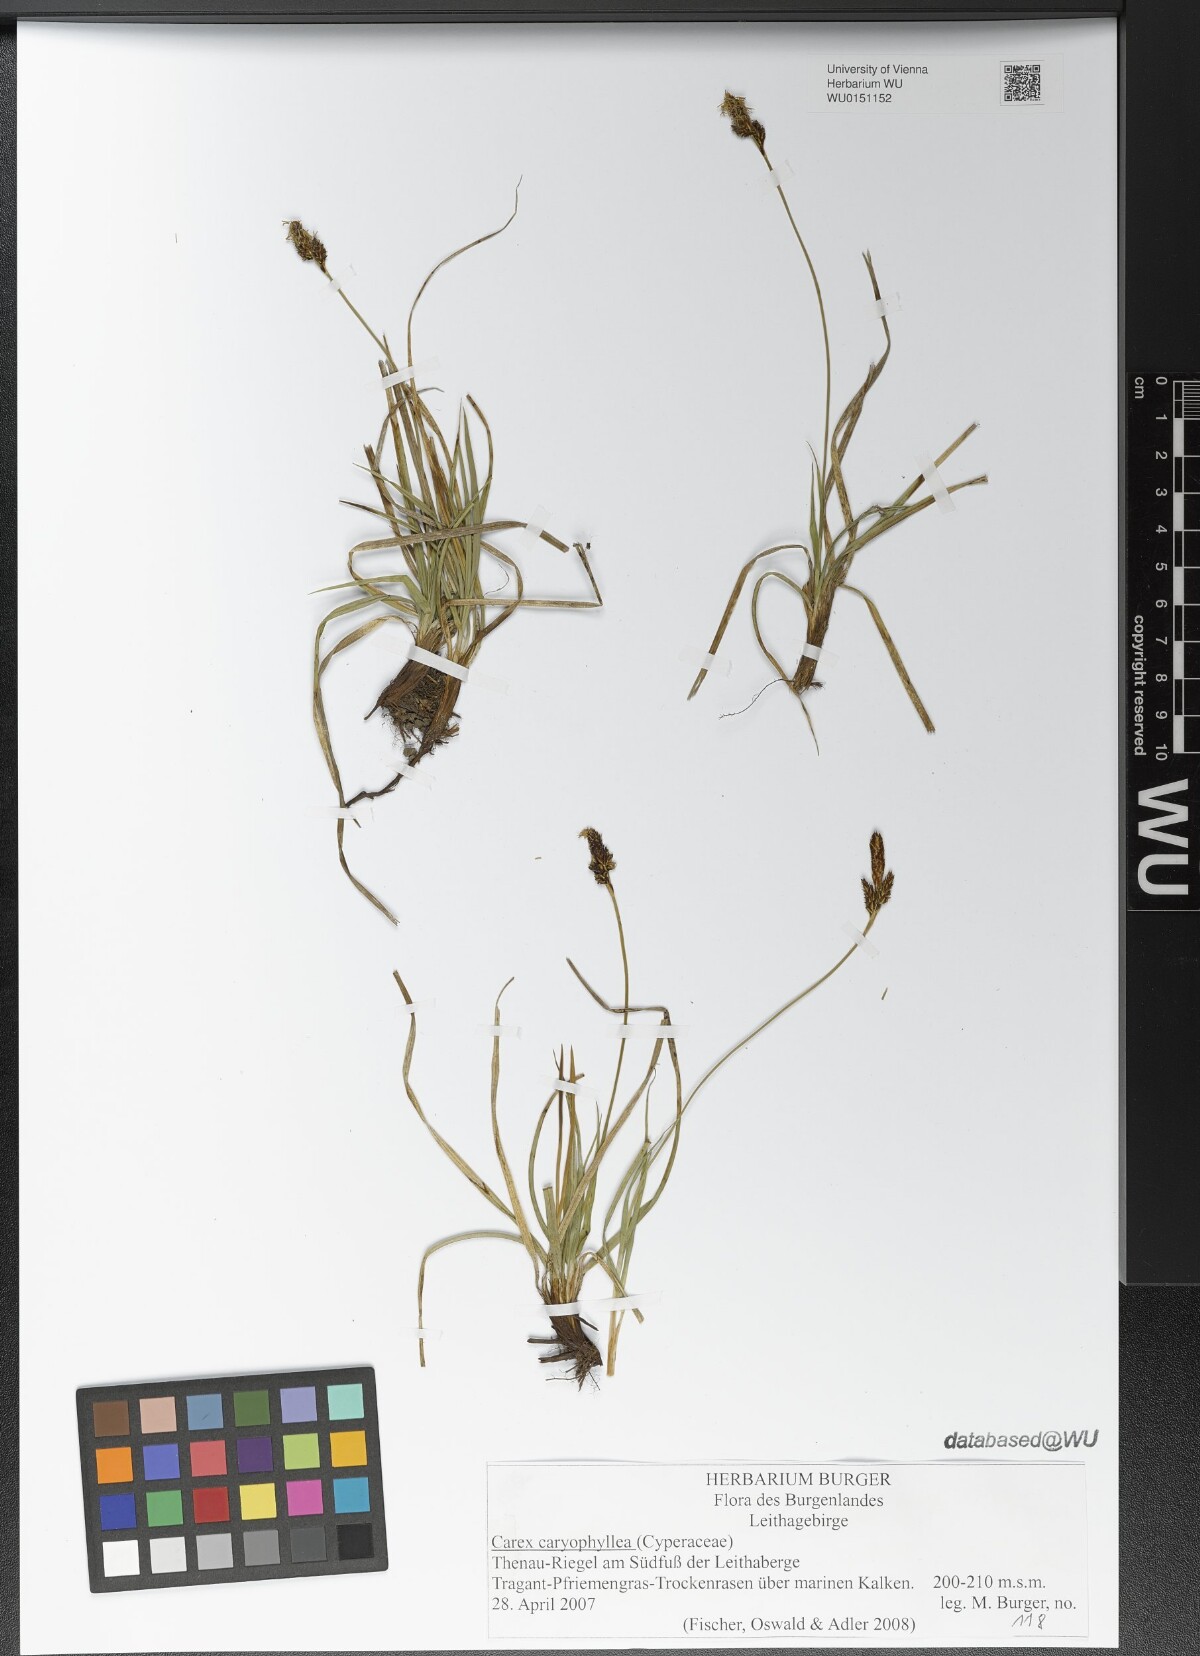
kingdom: Plantae
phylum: Tracheophyta
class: Liliopsida
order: Poales
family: Cyperaceae
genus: Carex
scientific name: Carex caryophyllea
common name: Spring sedge
